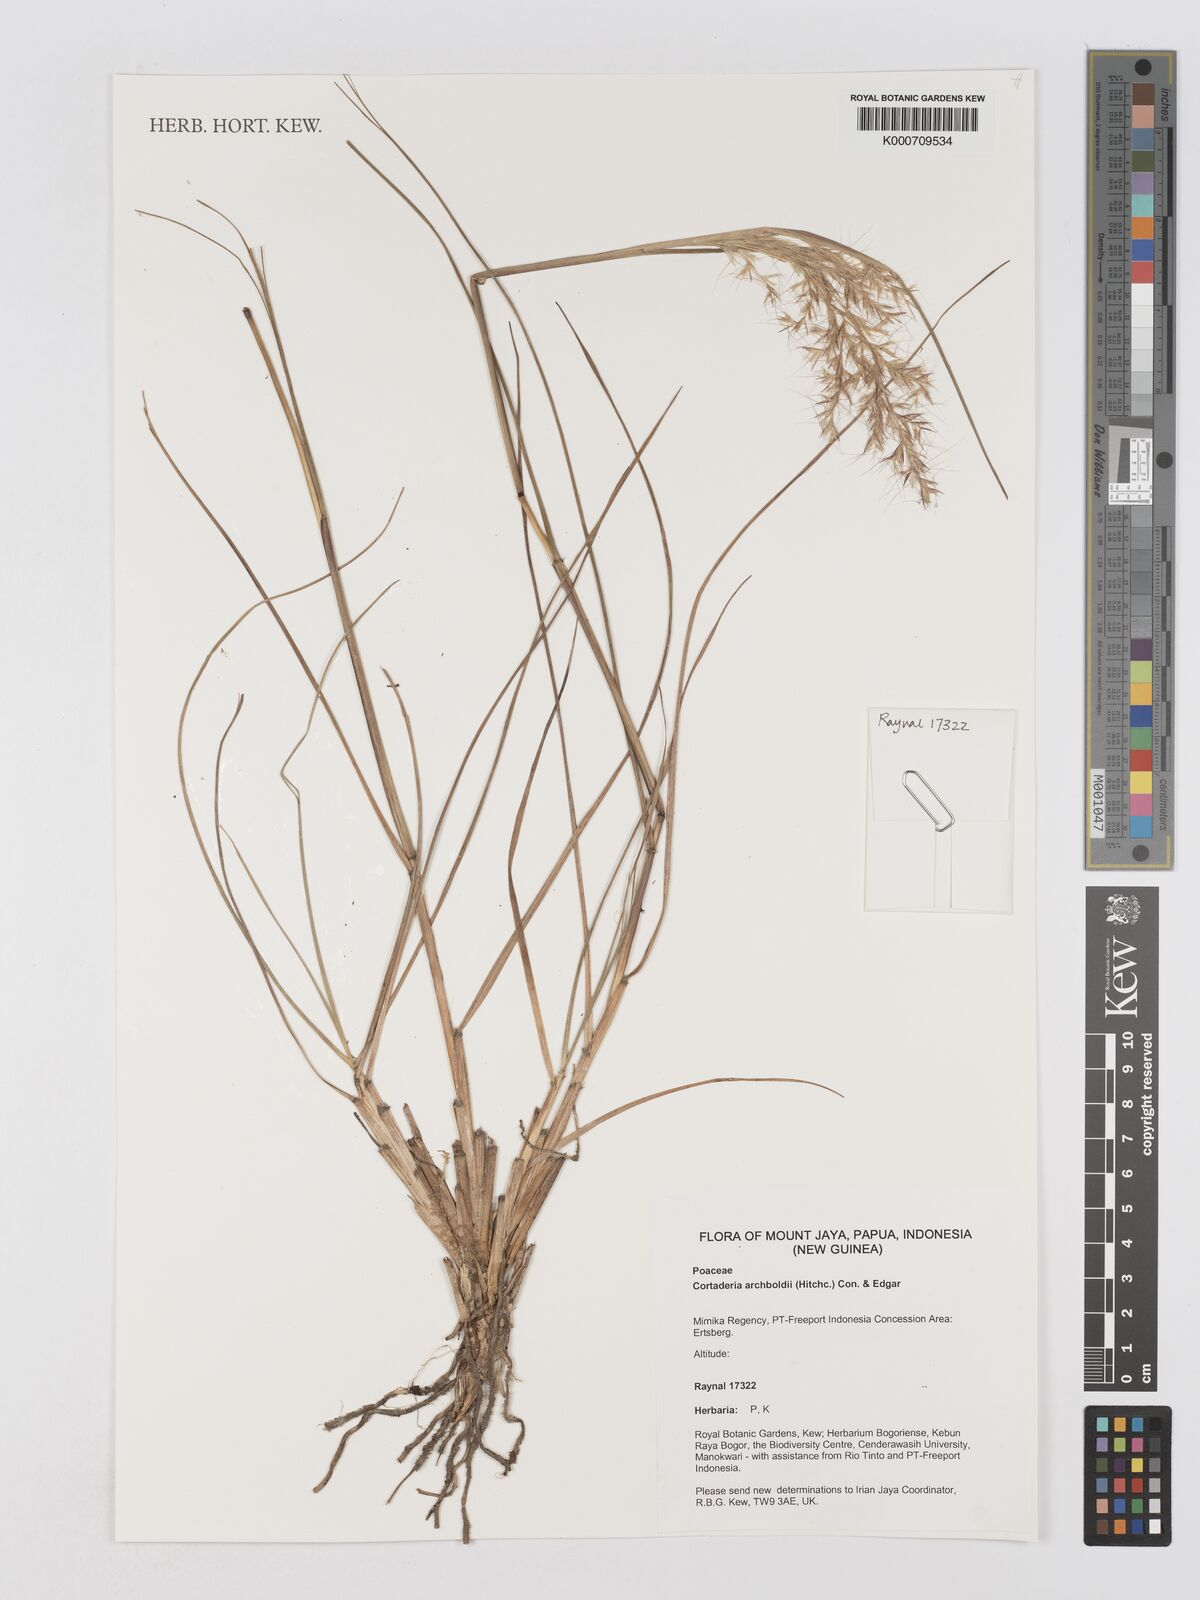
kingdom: Plantae
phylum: Tracheophyta
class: Liliopsida
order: Poales
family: Poaceae
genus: Chimaerochloa
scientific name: Chimaerochloa archboldii
